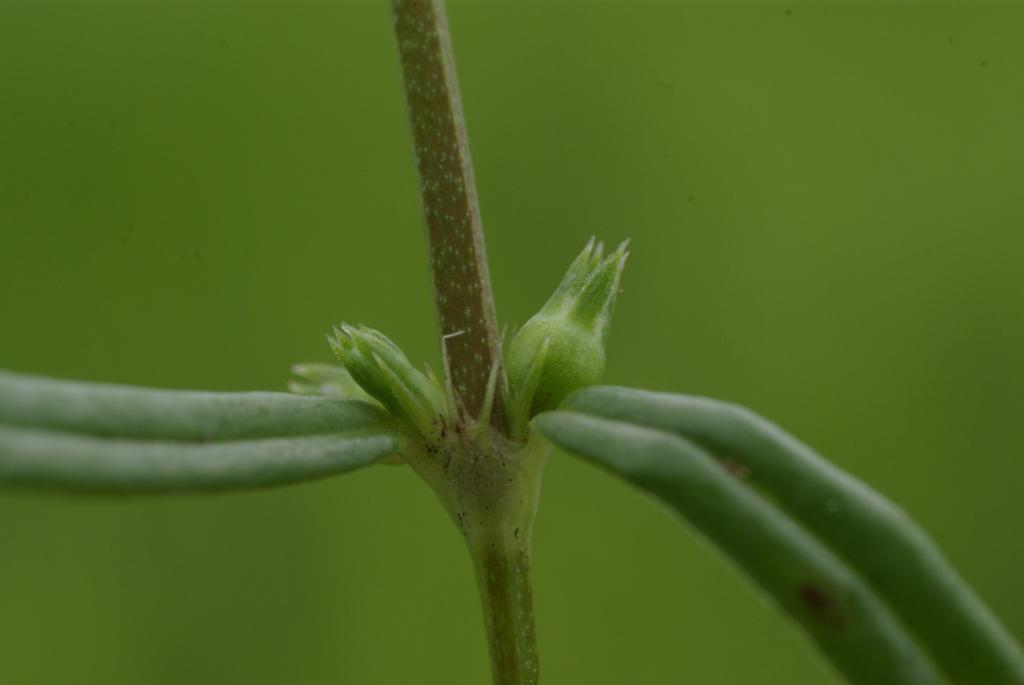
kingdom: Plantae
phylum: Tracheophyta
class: Magnoliopsida
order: Gentianales
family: Rubiaceae
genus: Scleromitrion
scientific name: Scleromitrion tenelliflorum
